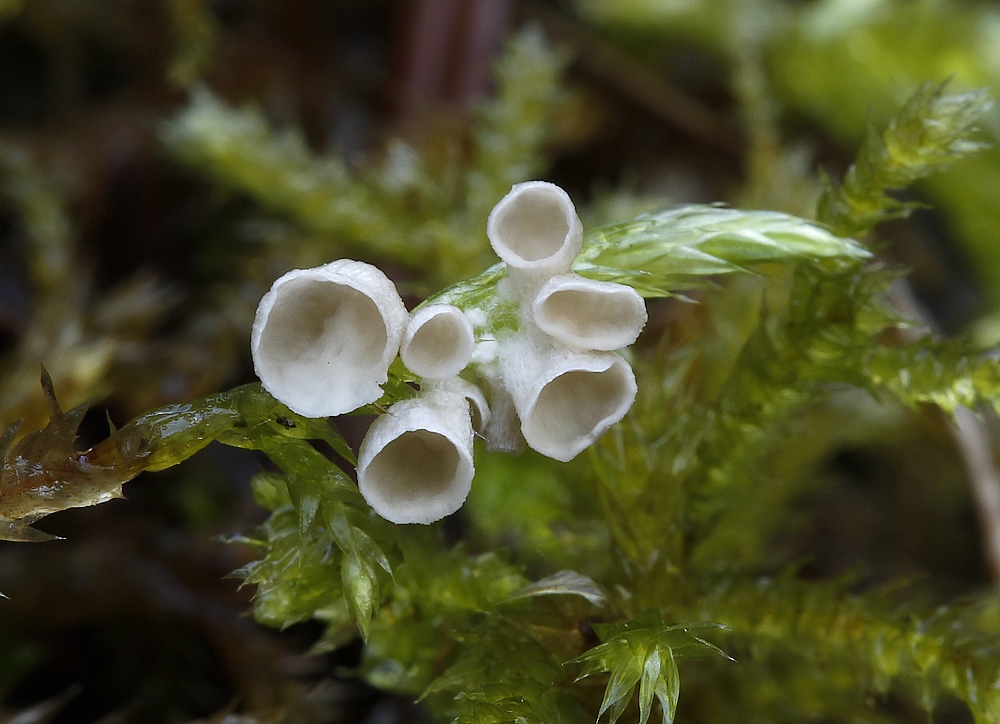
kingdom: Fungi
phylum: Basidiomycota
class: Agaricomycetes
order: Agaricales
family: Hygrophoraceae
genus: Arrhenia
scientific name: Arrhenia retiruga
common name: lille fontænehat
